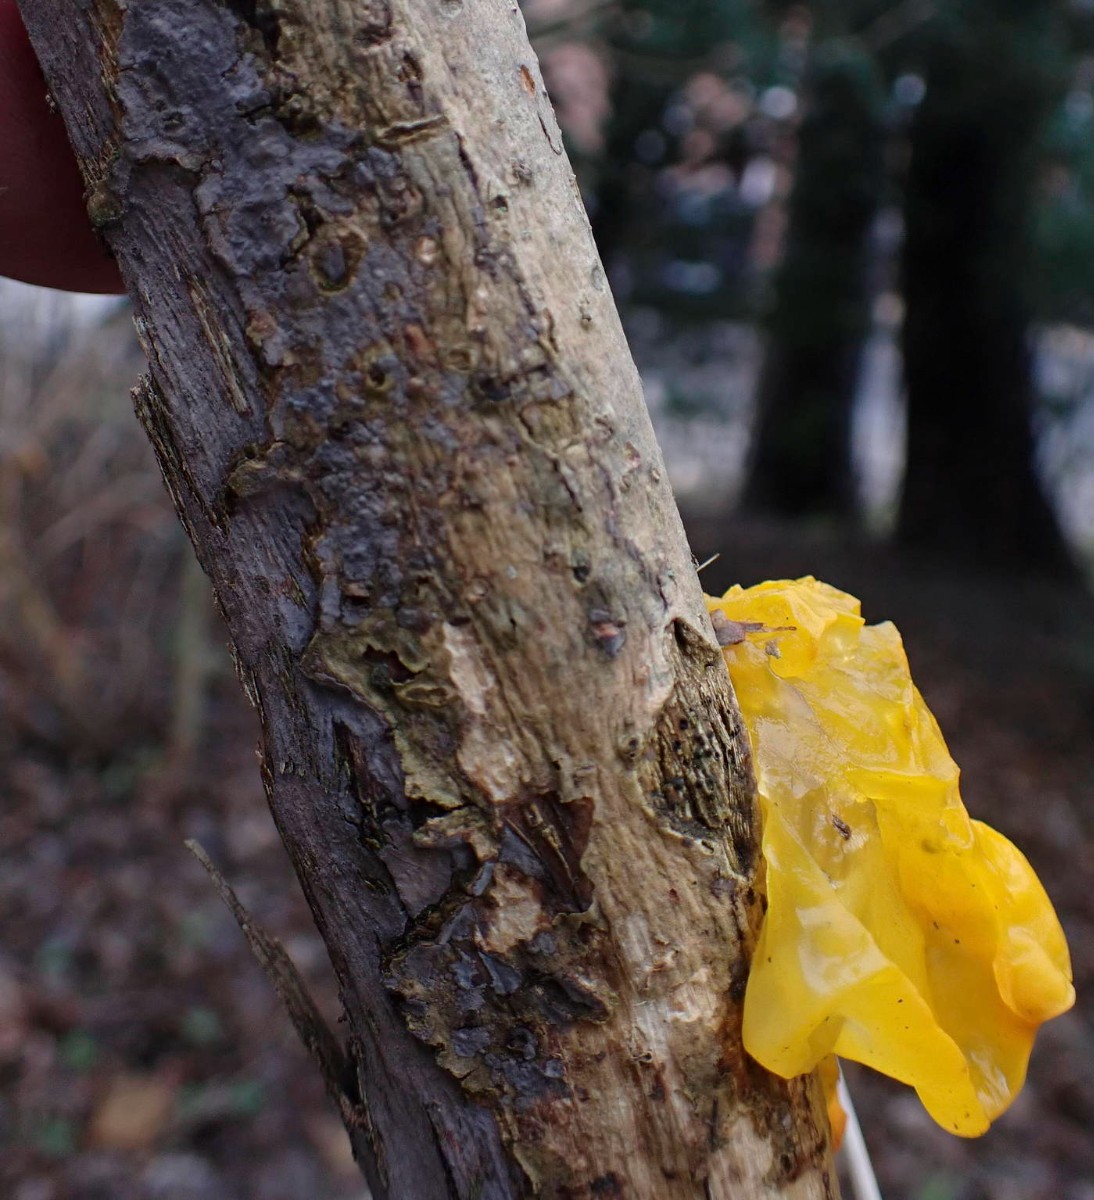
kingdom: Fungi
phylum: Basidiomycota
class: Agaricomycetes
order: Russulales
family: Peniophoraceae
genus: Peniophora
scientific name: Peniophora lycii
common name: grynet voksskind
